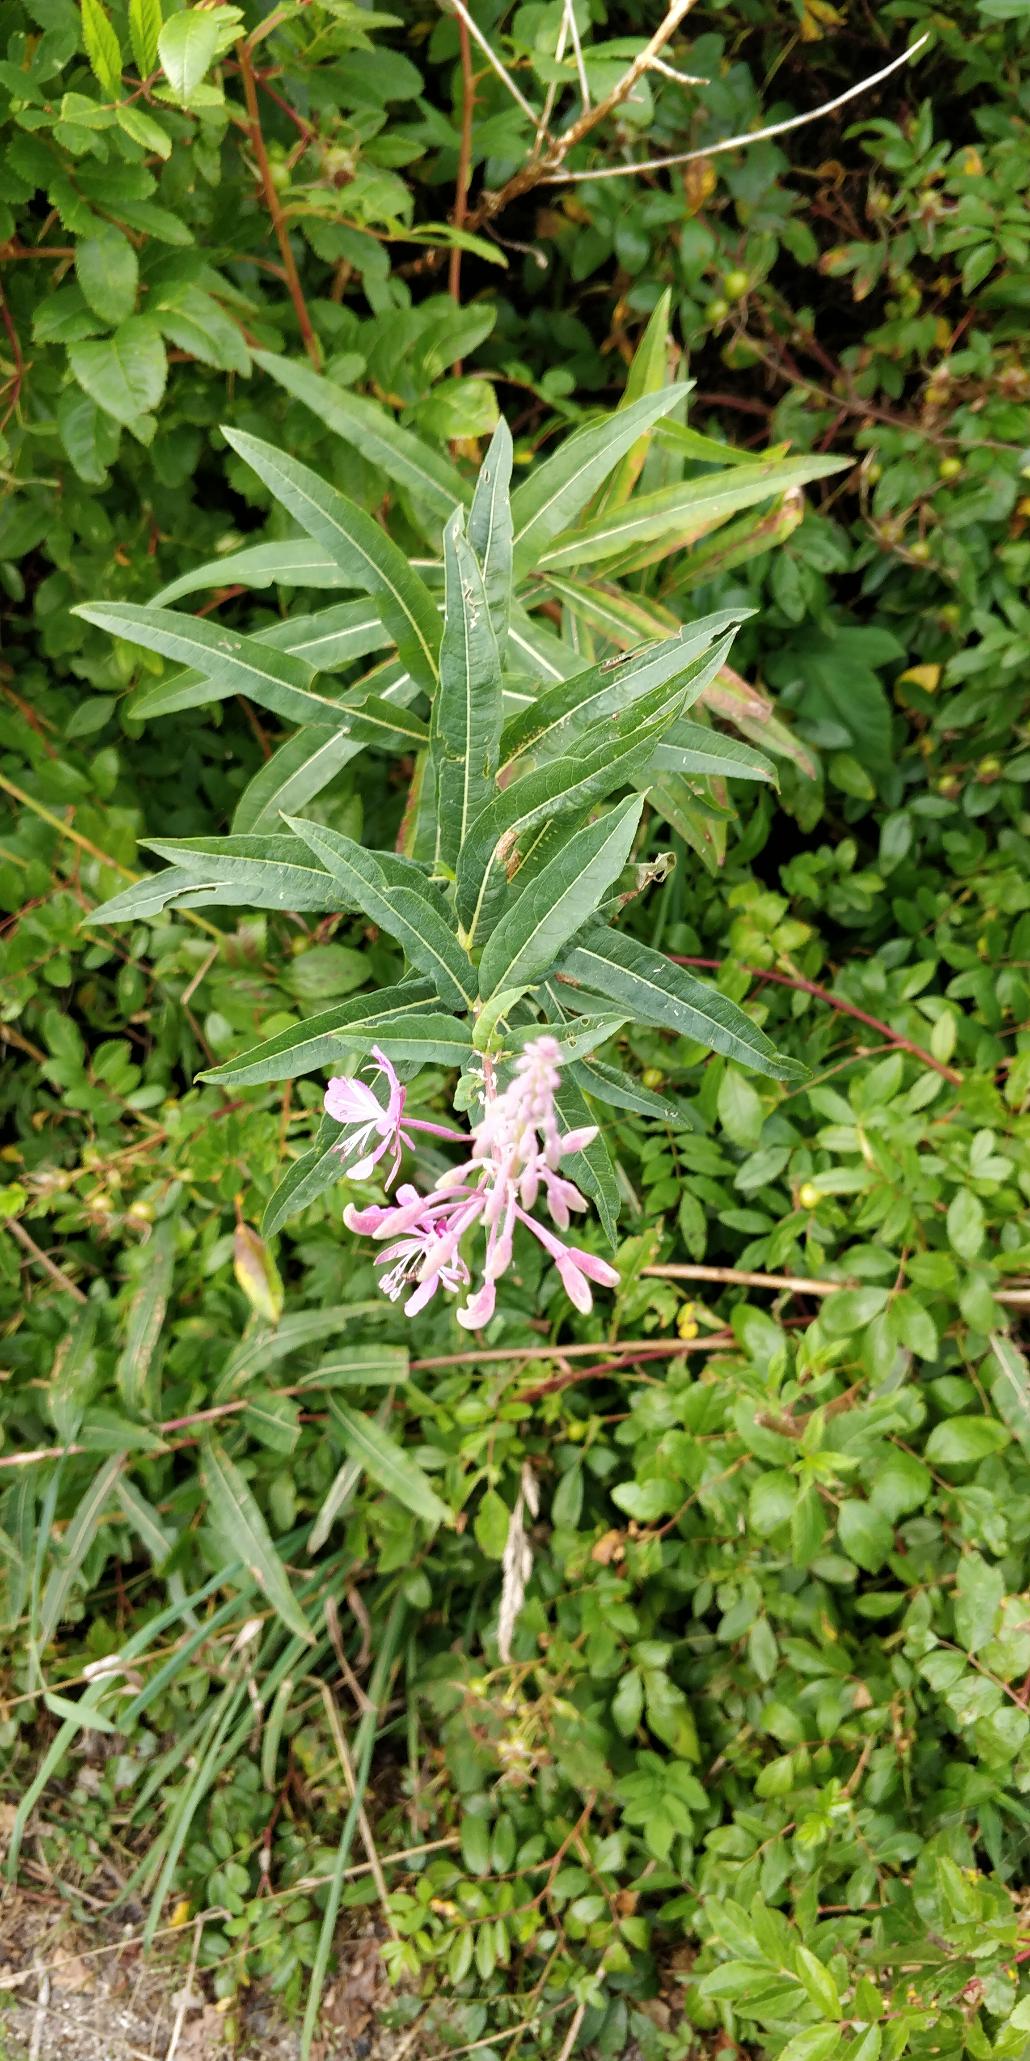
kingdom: Plantae
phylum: Tracheophyta
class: Magnoliopsida
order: Myrtales
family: Onagraceae
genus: Chamaenerion
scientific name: Chamaenerion angustifolium
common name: Gederams
